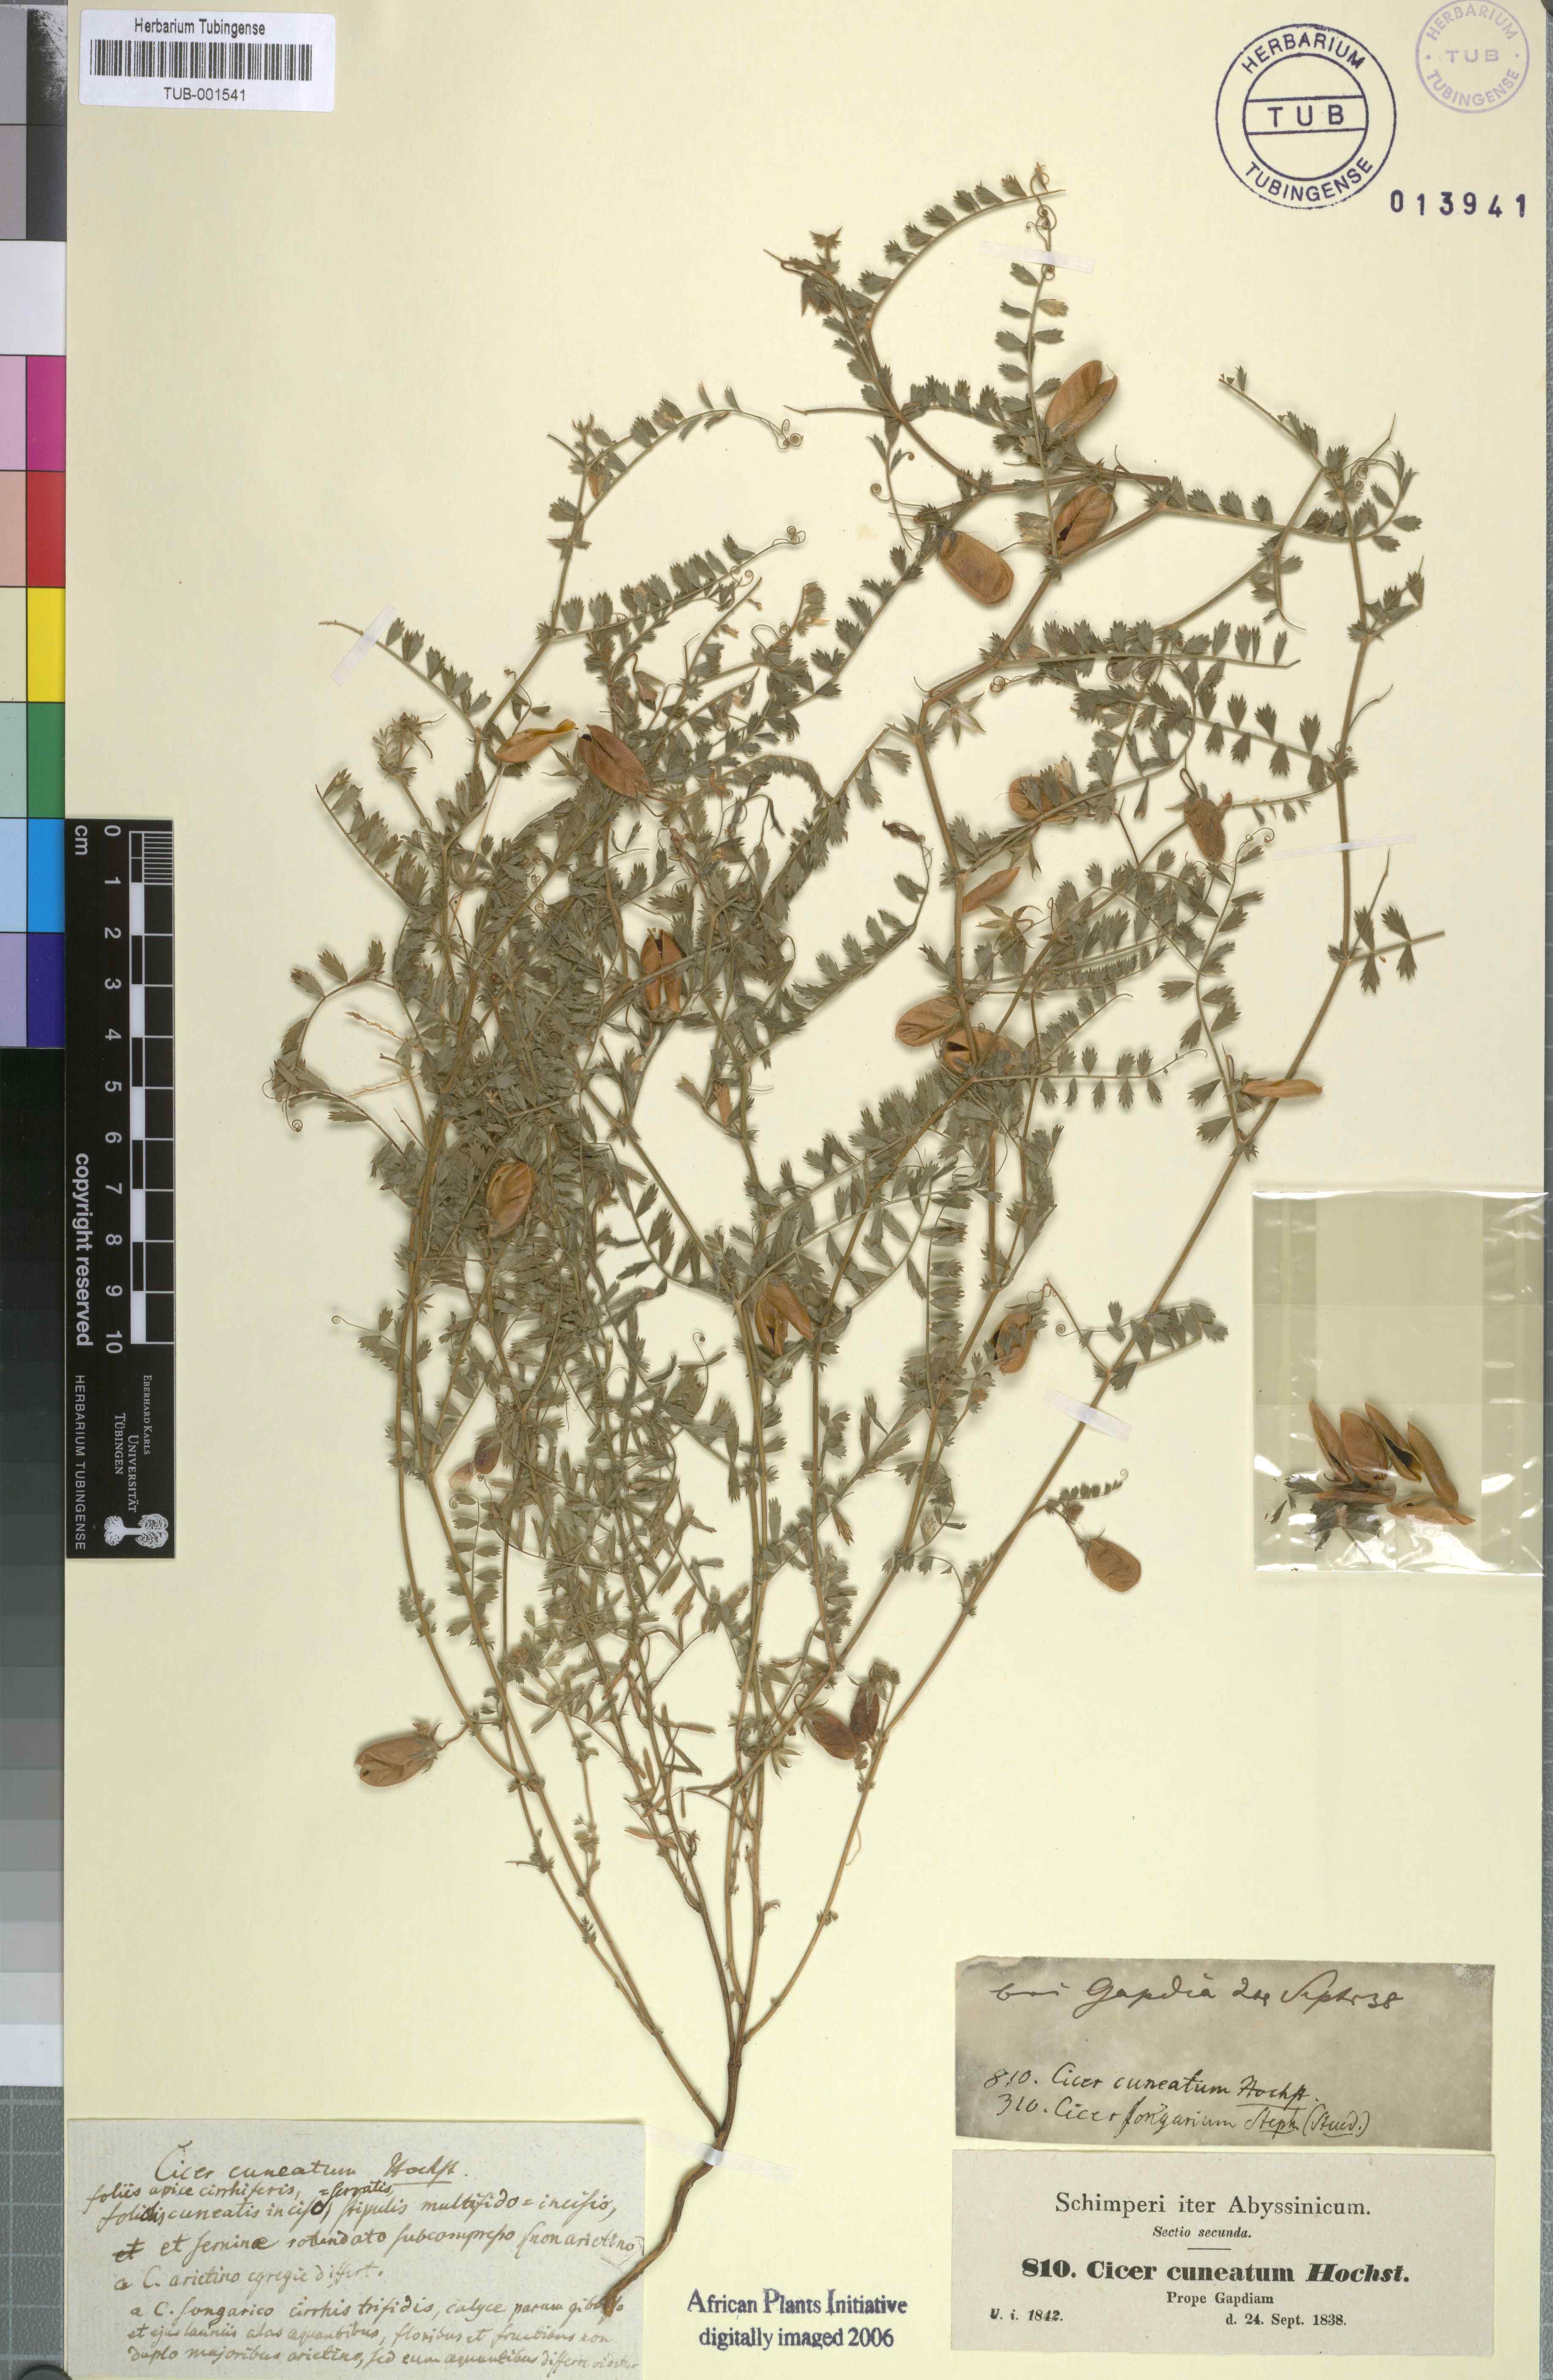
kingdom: Plantae
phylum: Tracheophyta
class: Magnoliopsida
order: Fabales
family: Fabaceae
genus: Cicer
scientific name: Cicer arietinum
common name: Chick pea
